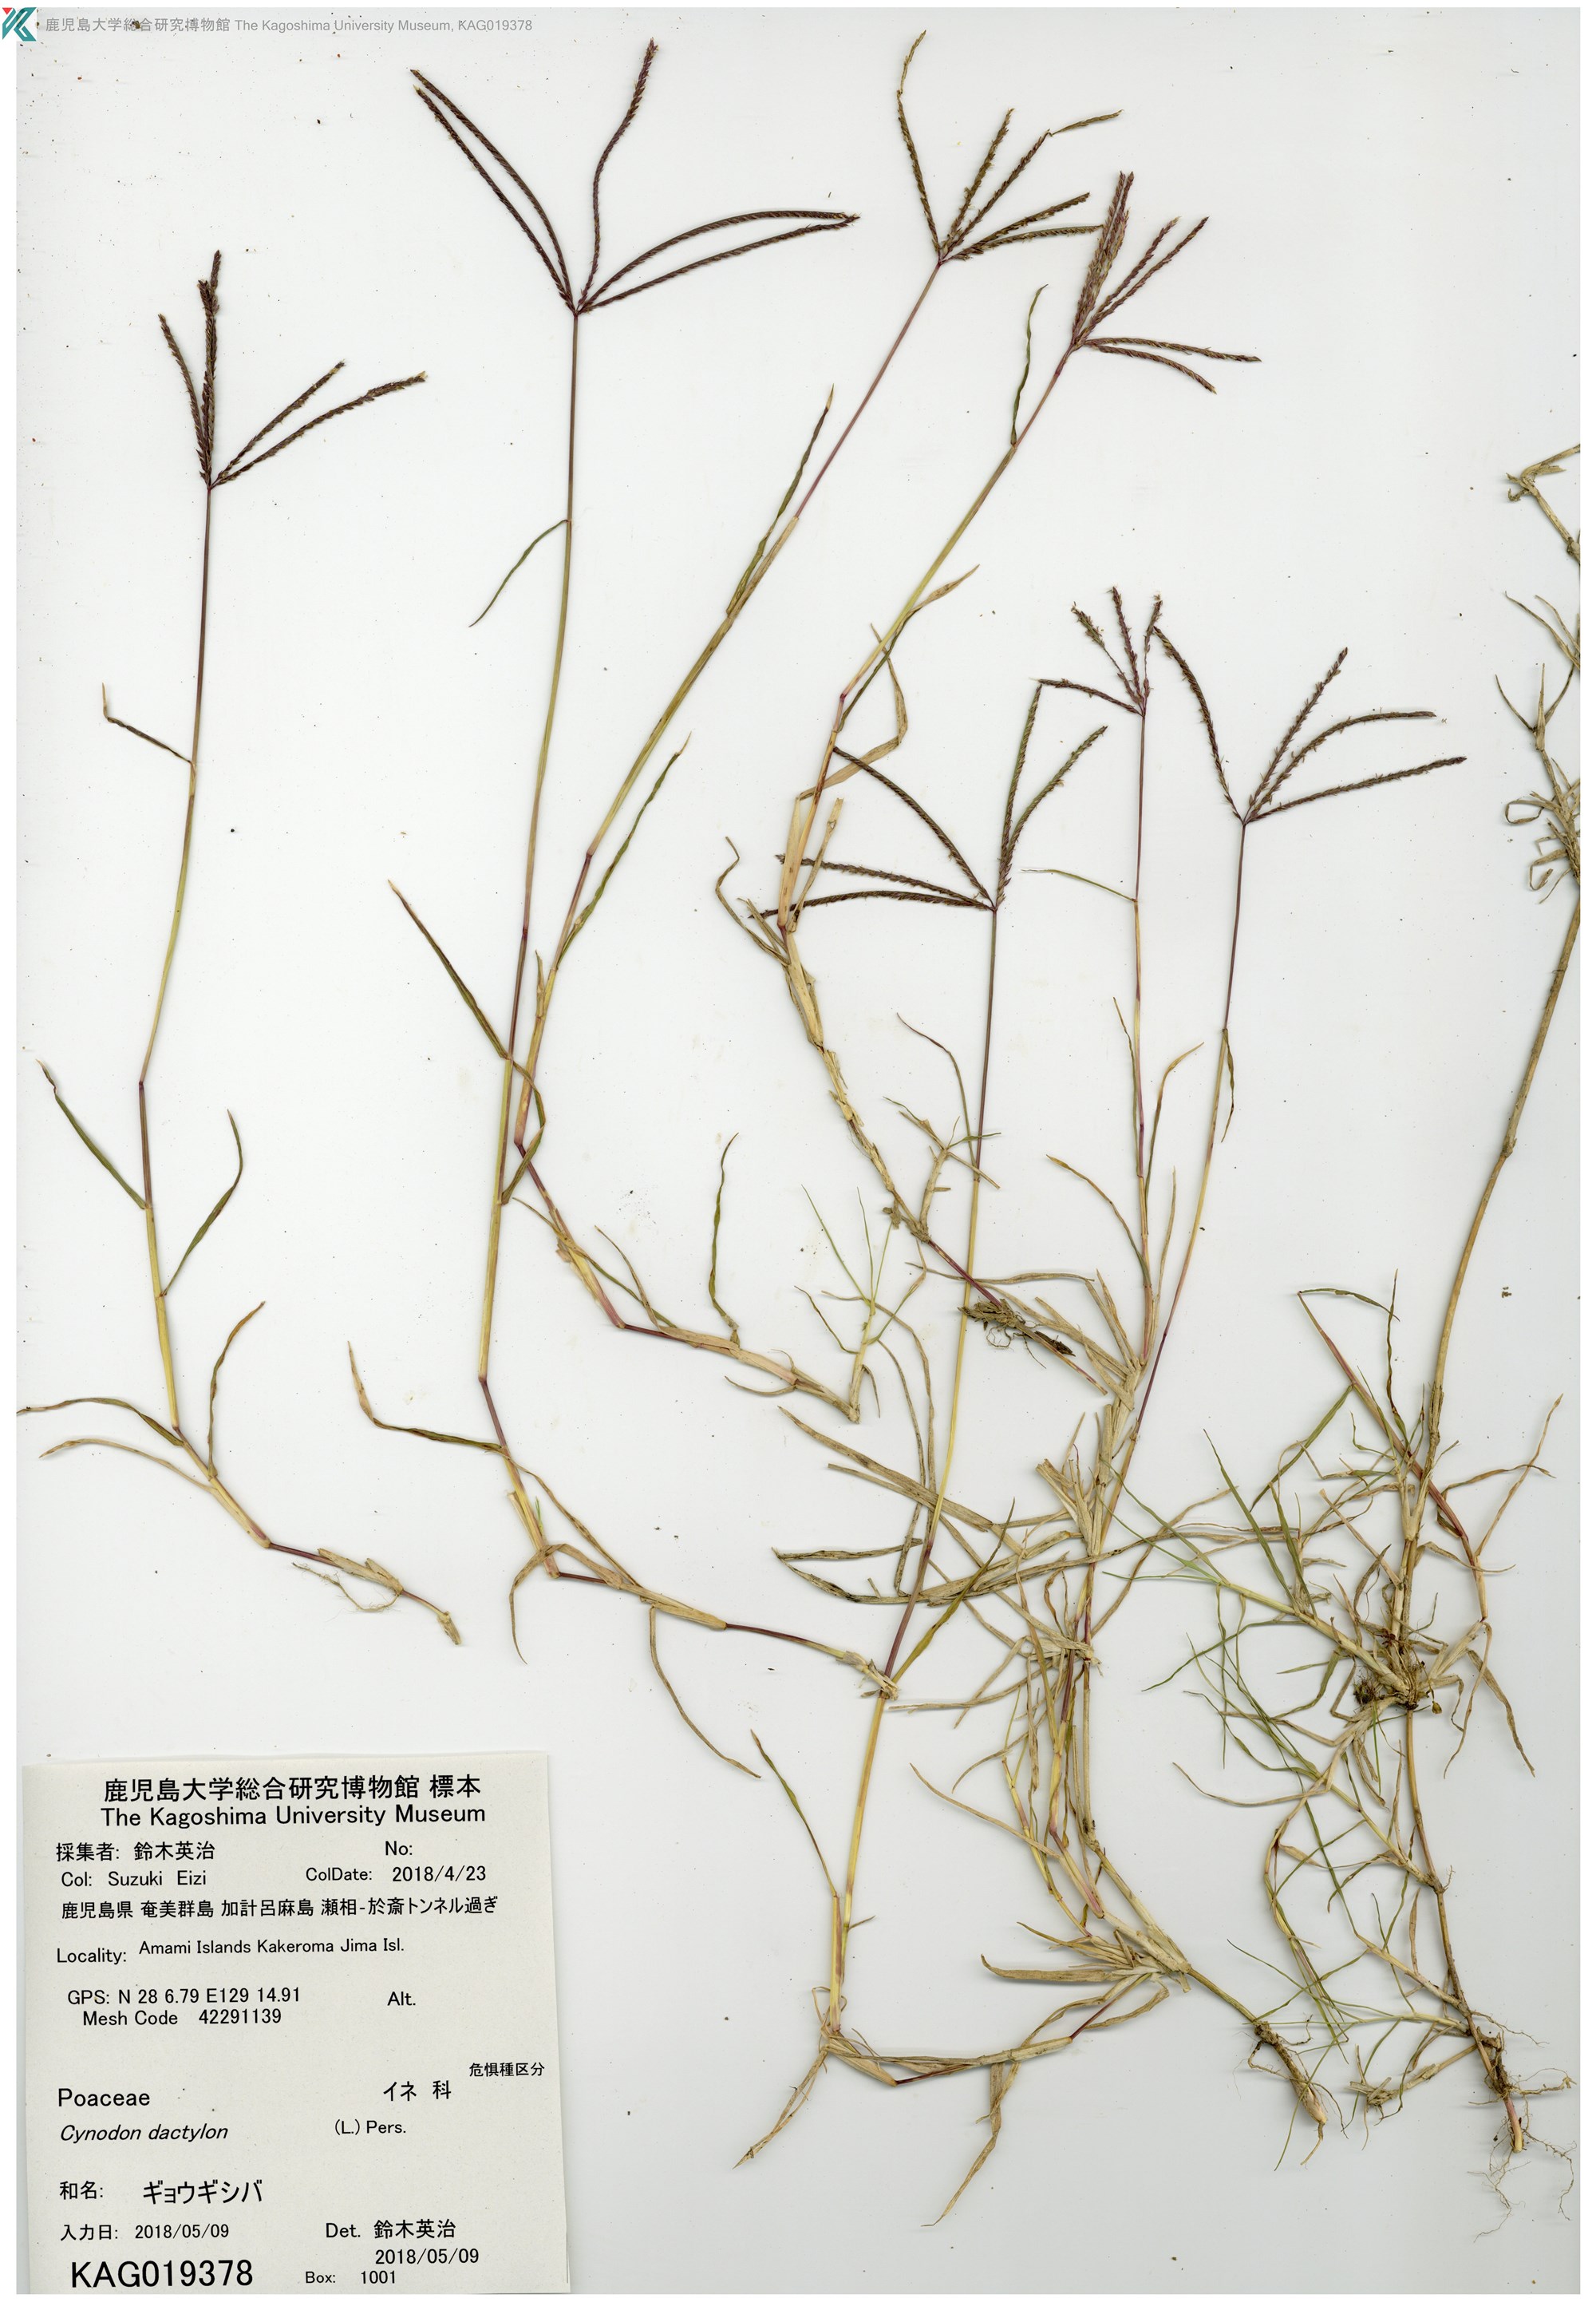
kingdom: Plantae
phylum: Tracheophyta
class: Liliopsida
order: Poales
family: Poaceae
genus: Cynodon
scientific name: Cynodon dactylon
